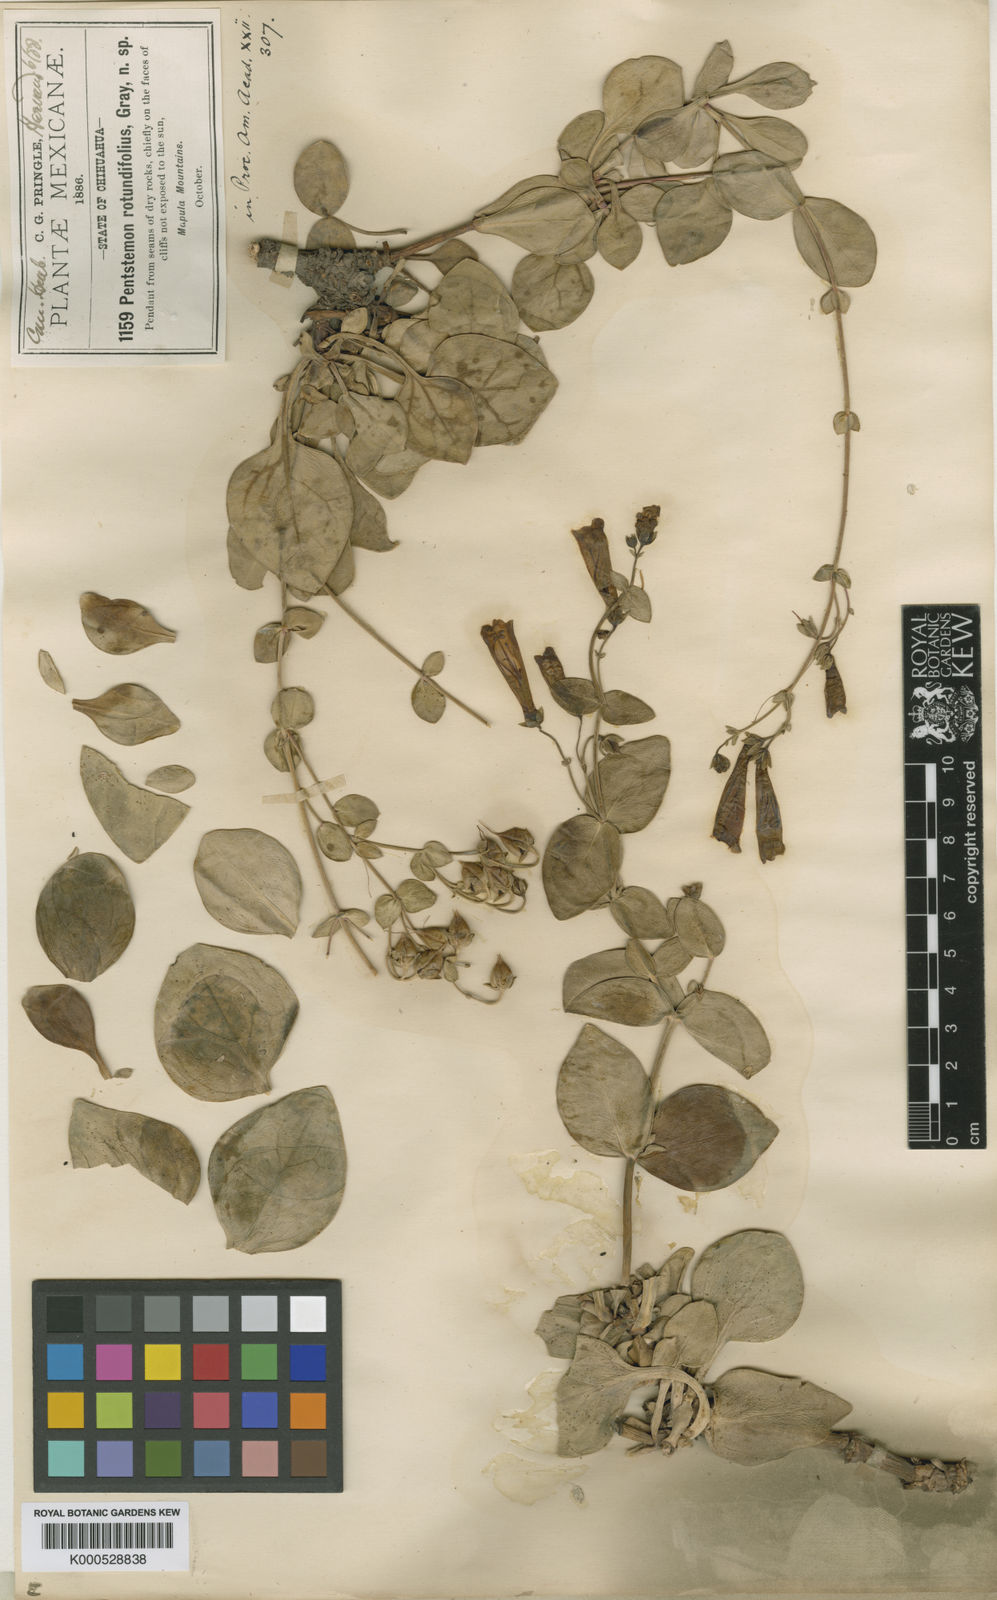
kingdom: Plantae
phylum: Tracheophyta
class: Magnoliopsida
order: Lamiales
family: Plantaginaceae
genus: Penstemon
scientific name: Penstemon rotundifolius
